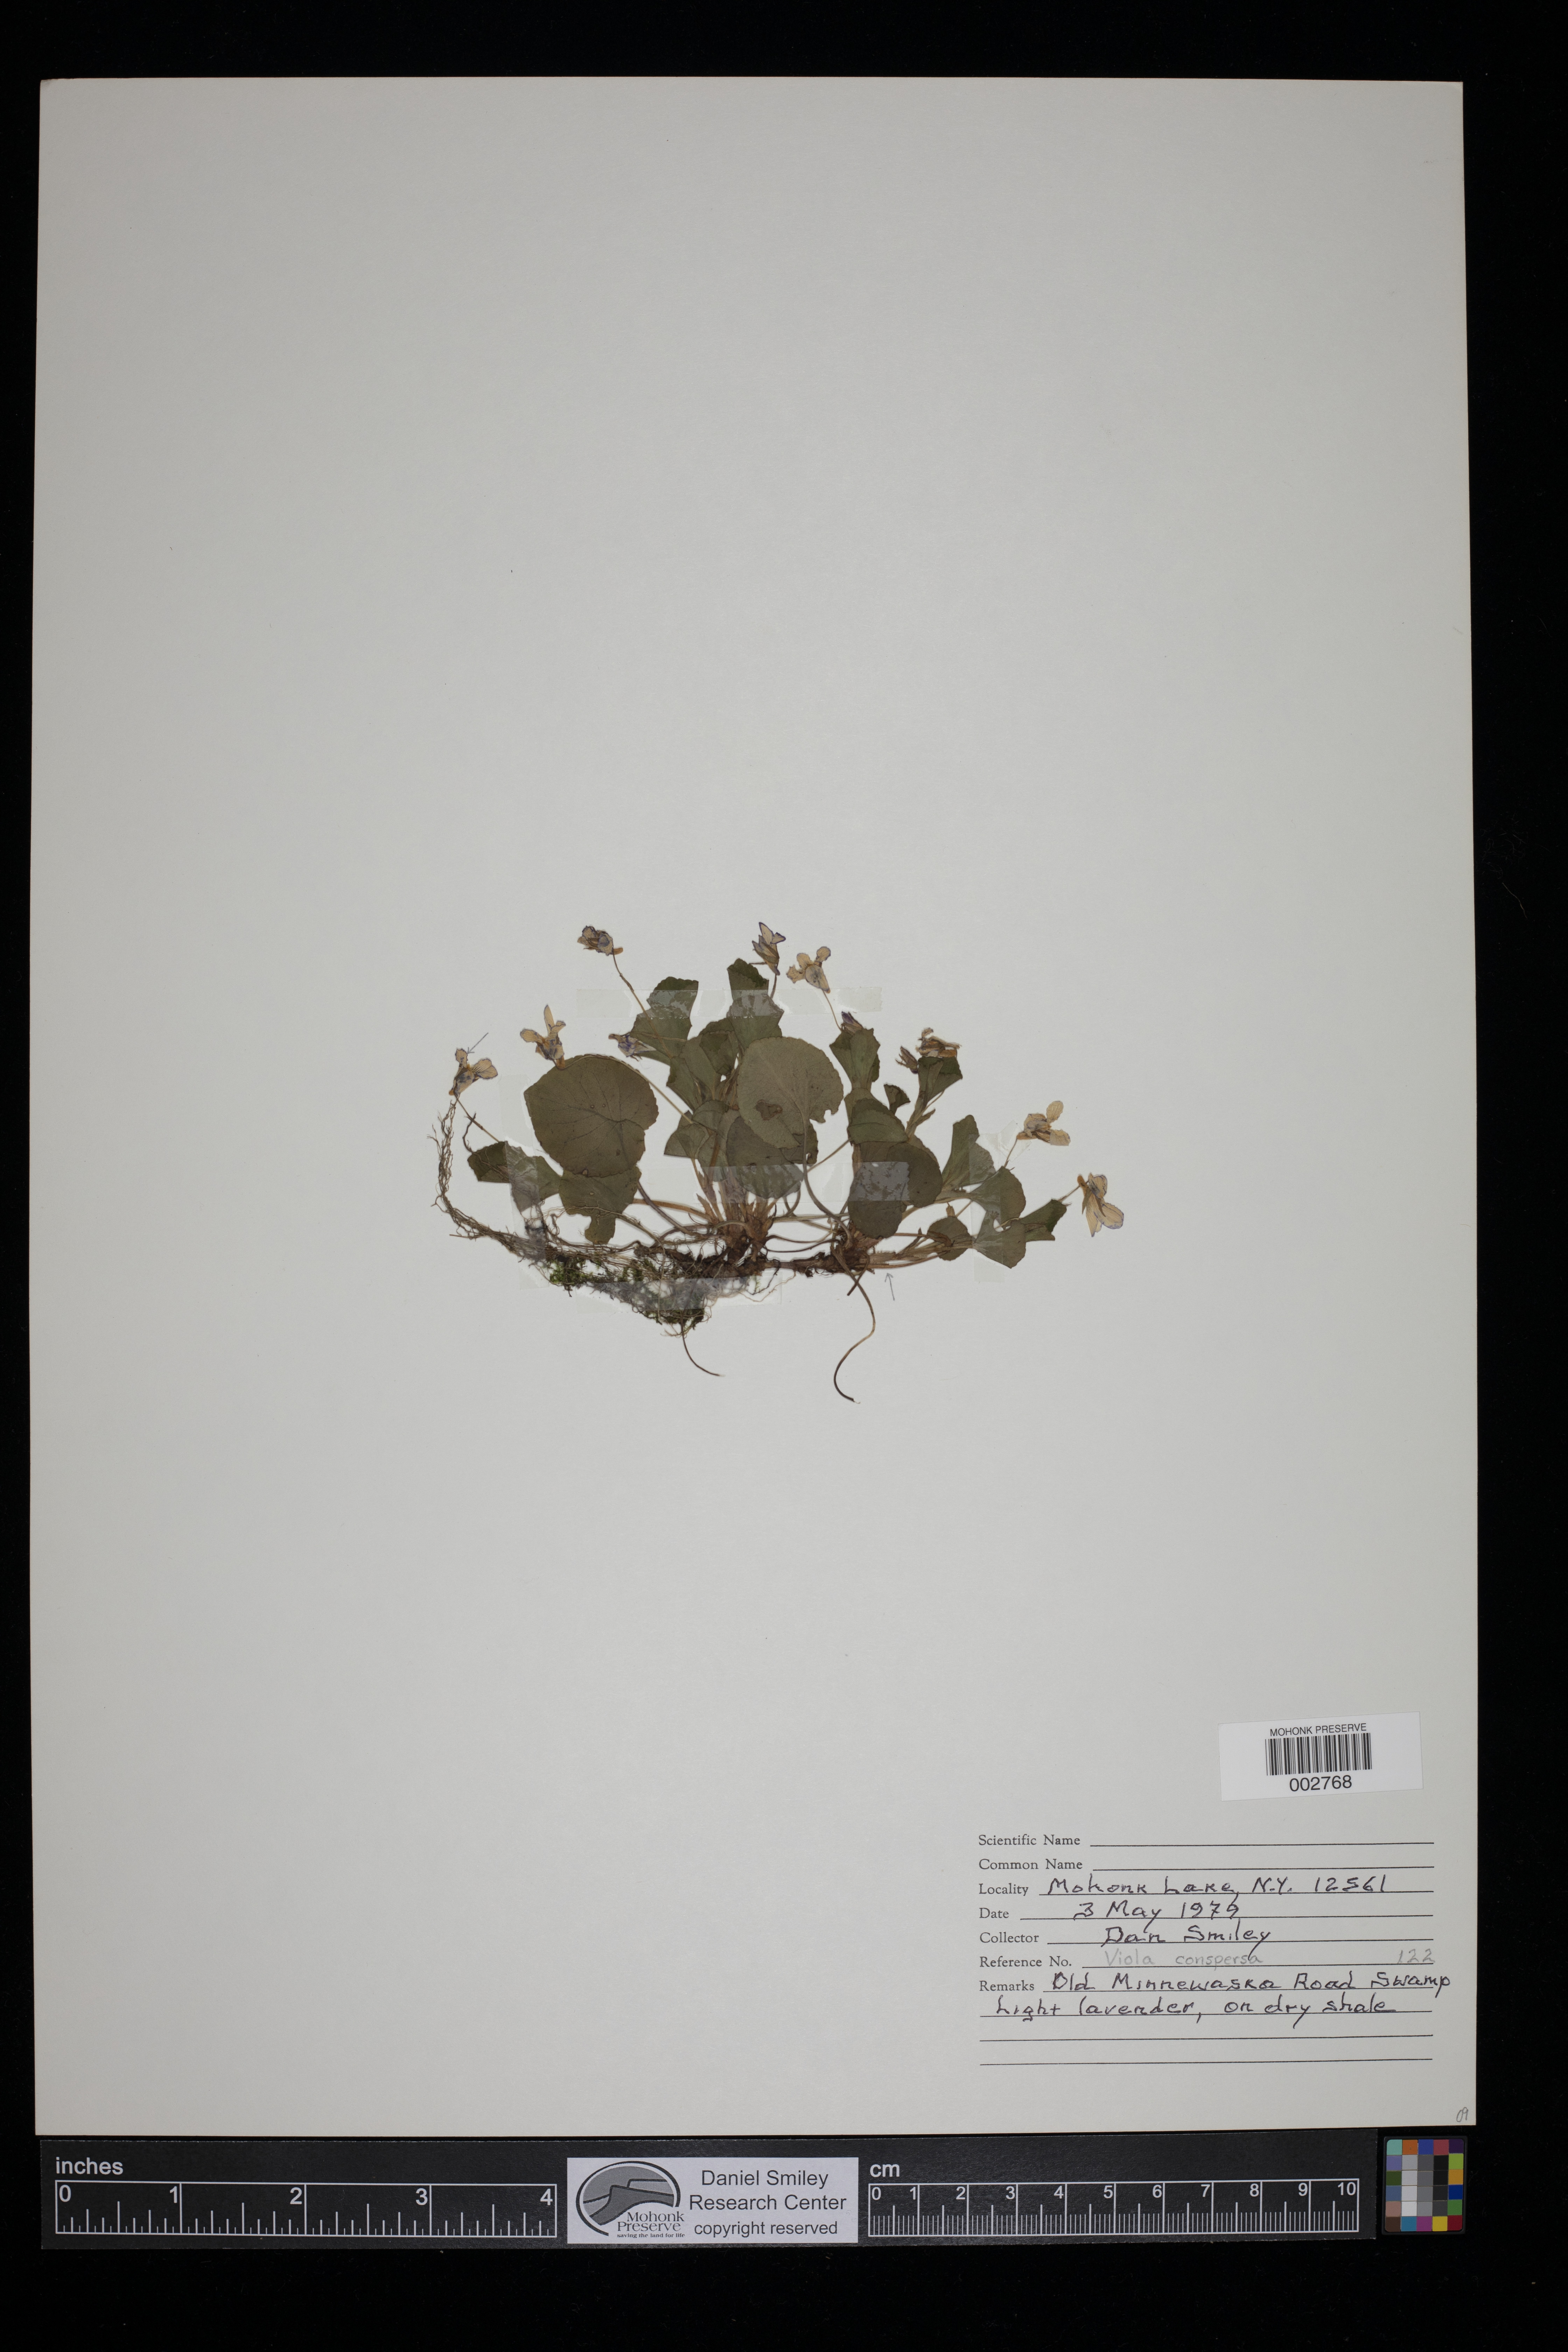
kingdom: Plantae
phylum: Tracheophyta
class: Magnoliopsida
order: Malpighiales
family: Violaceae
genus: Viola
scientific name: Viola labradorica
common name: Labrador violet
